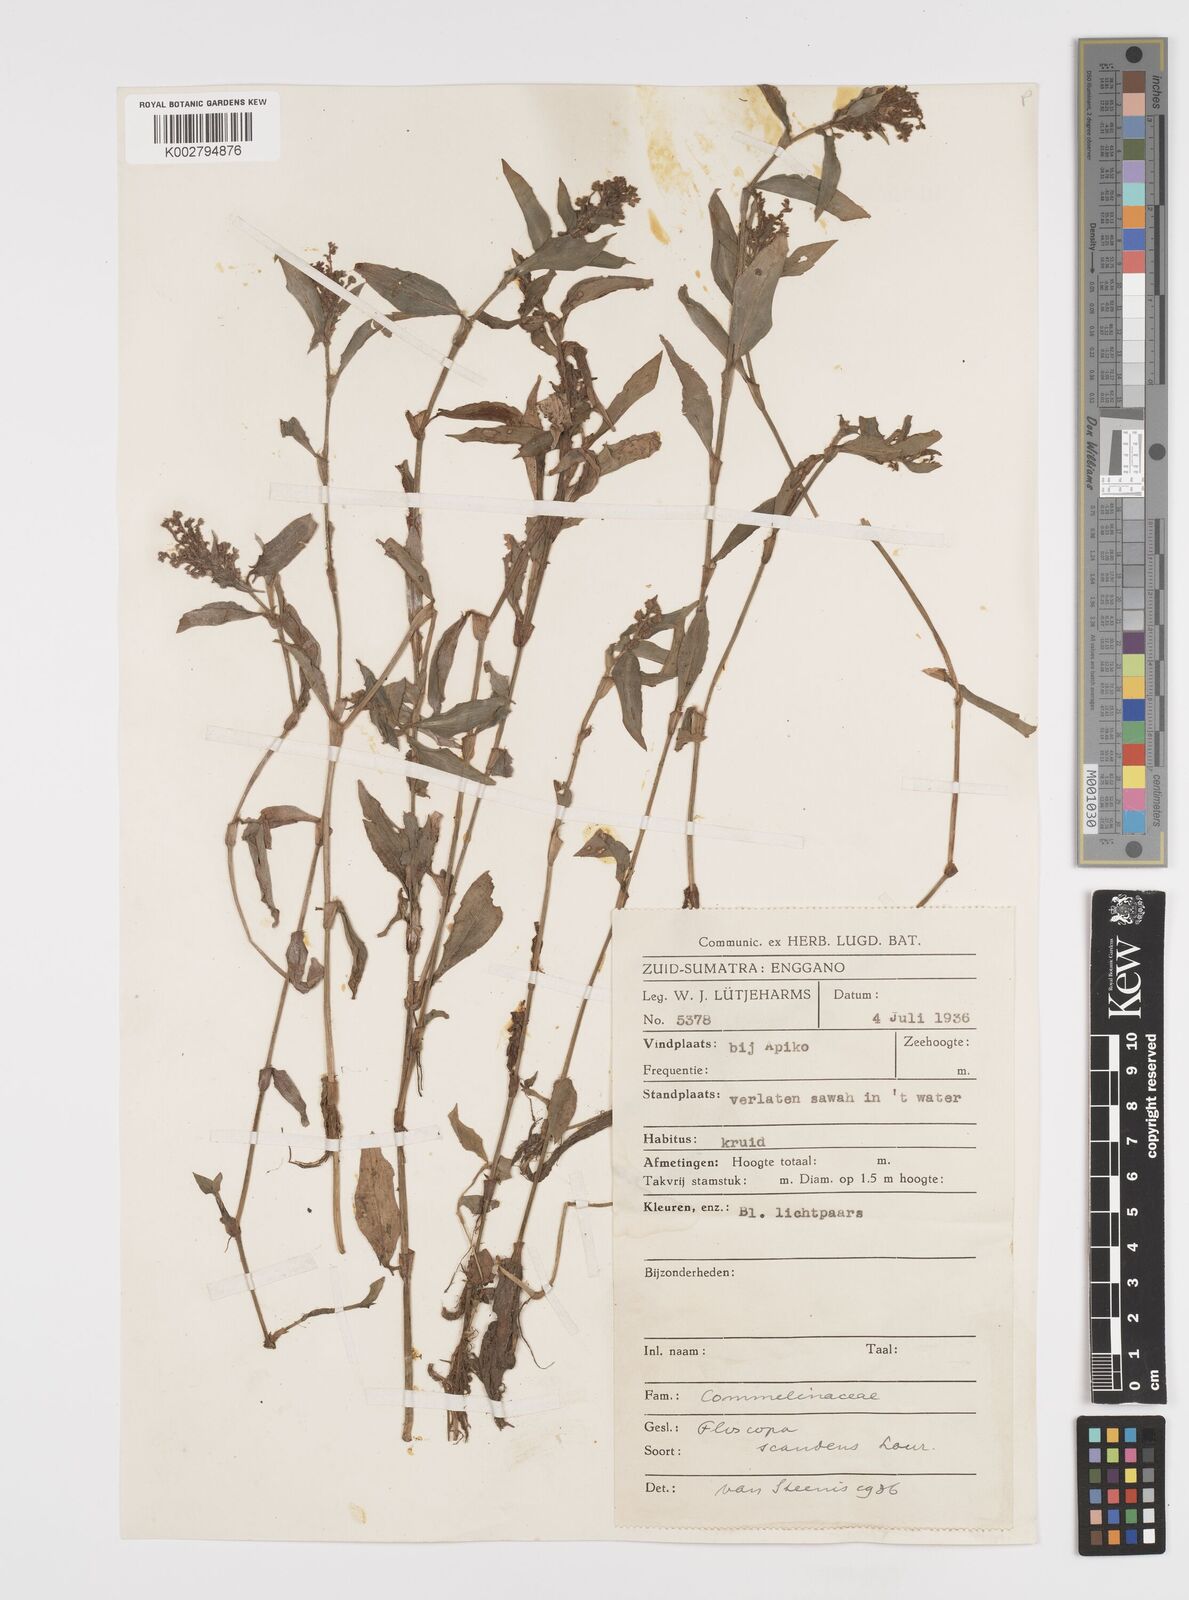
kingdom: Plantae
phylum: Tracheophyta
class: Liliopsida
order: Commelinales
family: Commelinaceae
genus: Floscopa
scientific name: Floscopa scandens
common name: Climbing flower cup
